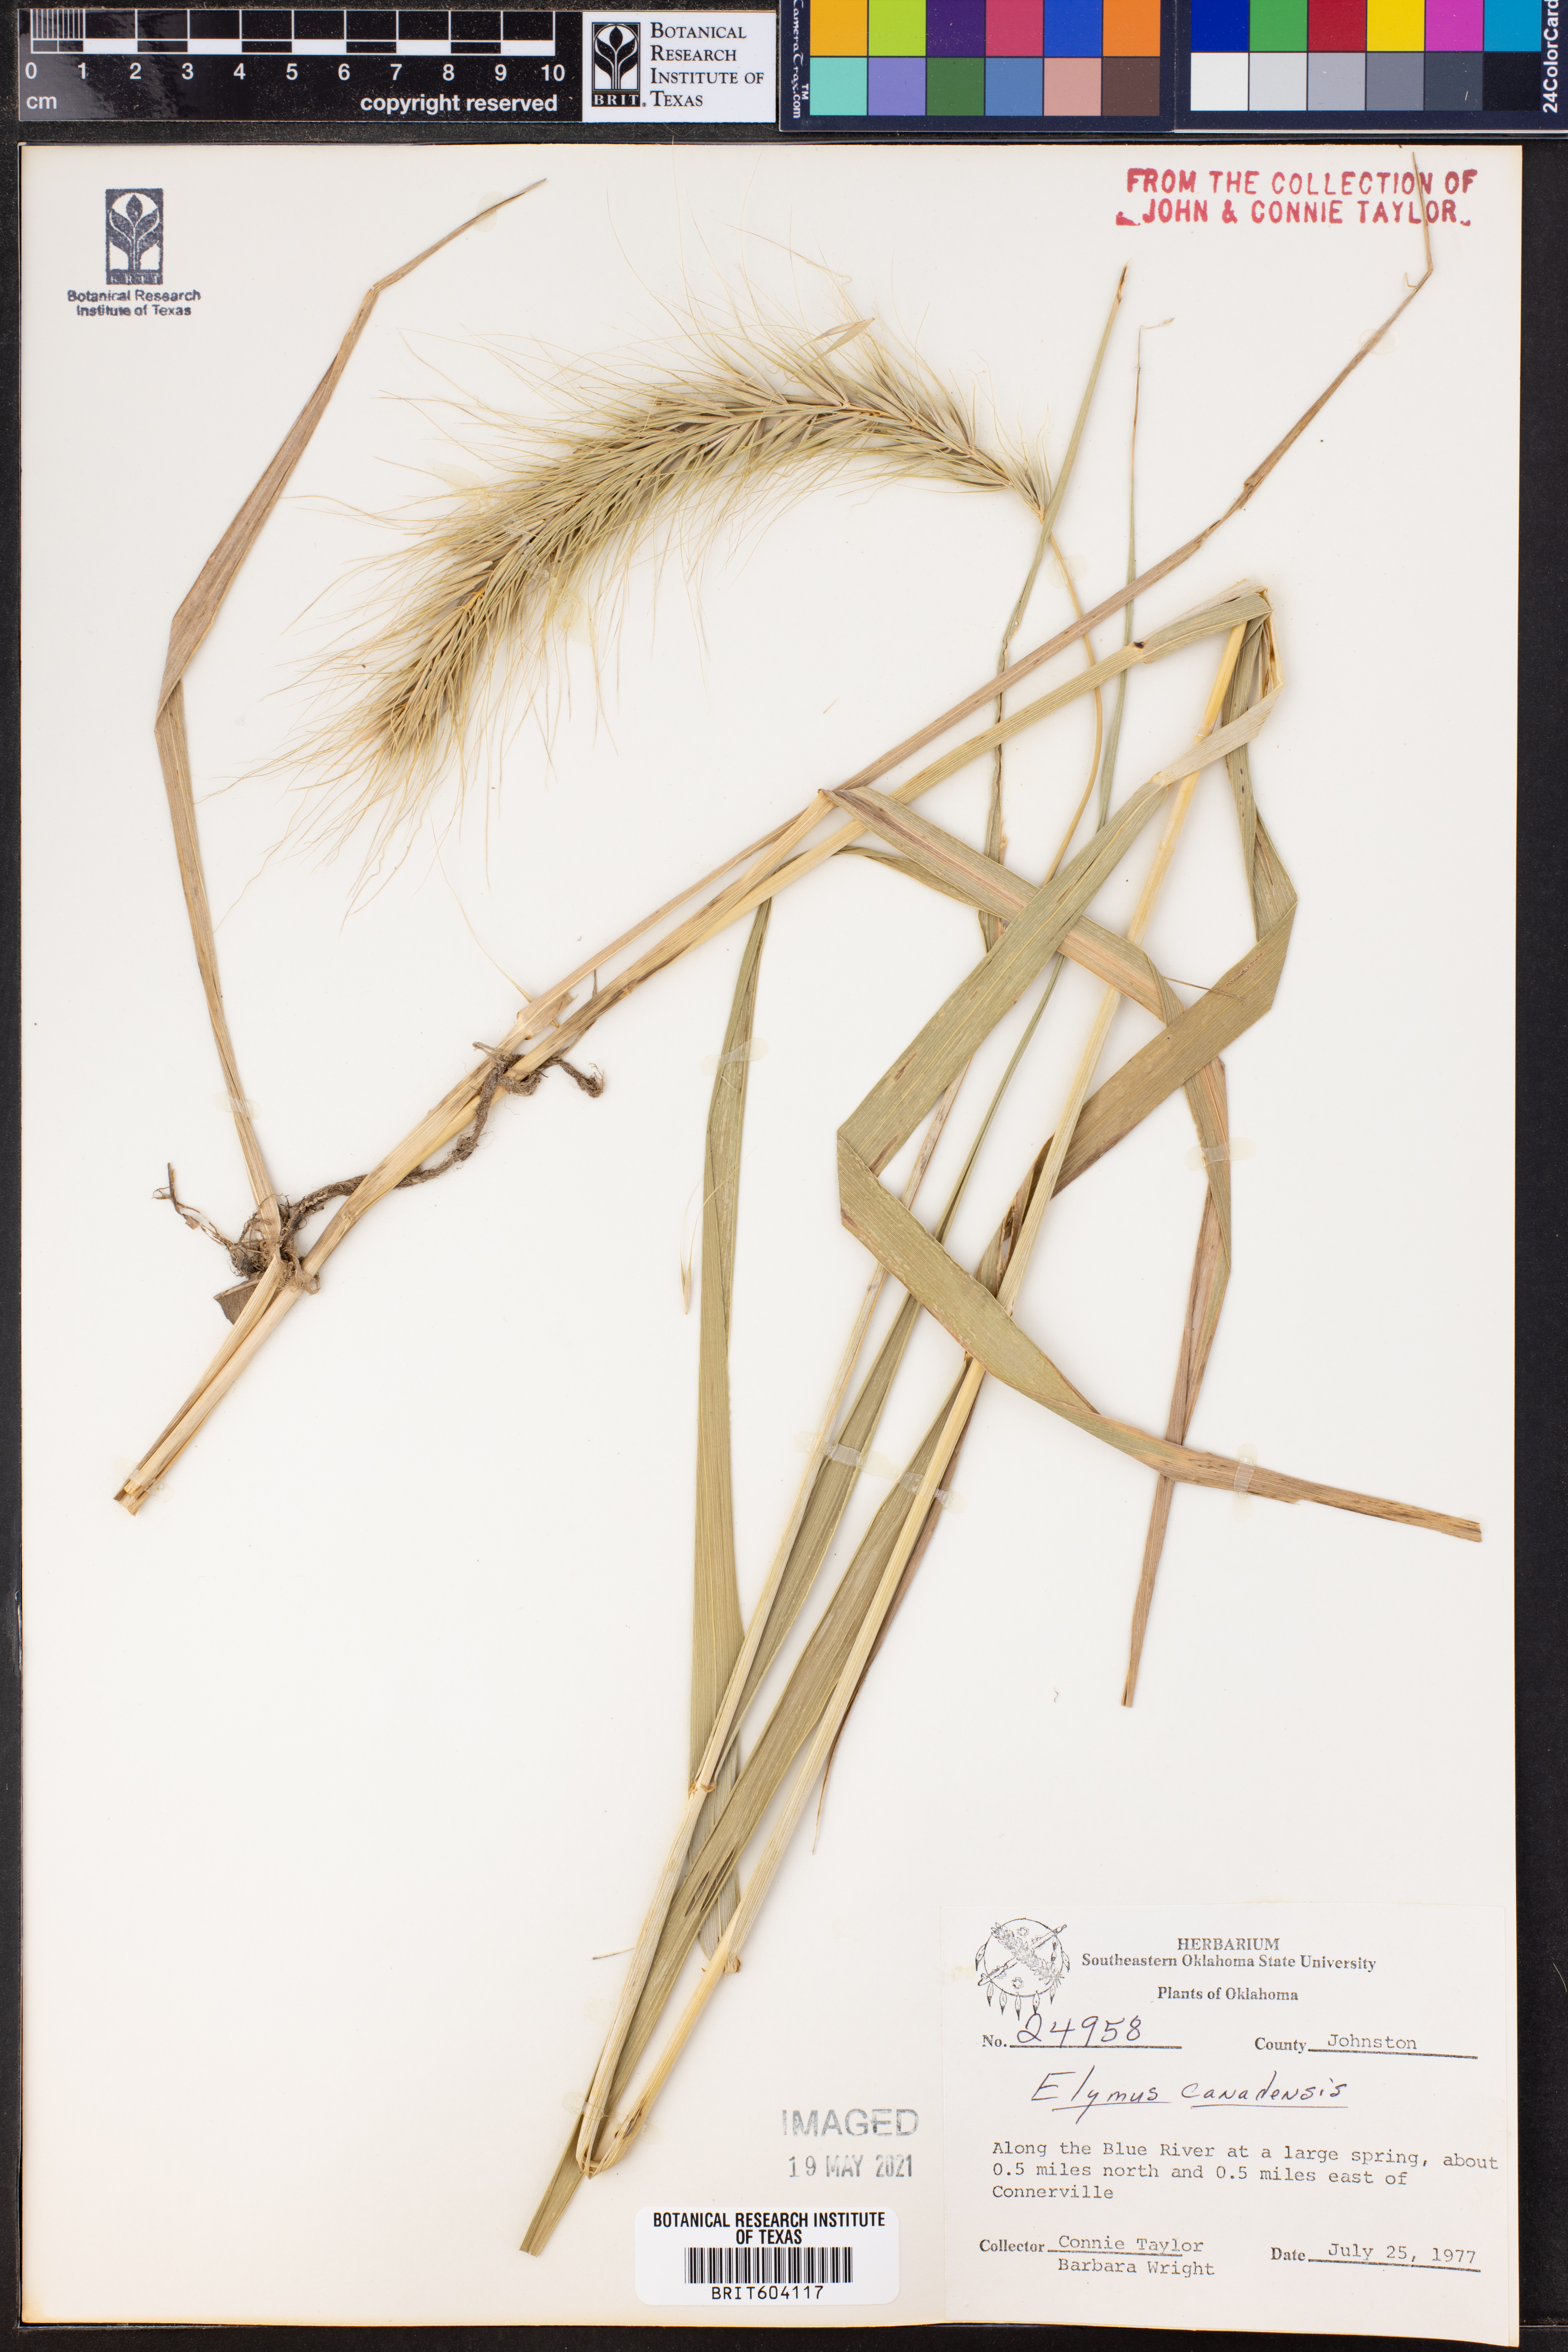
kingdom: Plantae
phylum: Tracheophyta
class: Liliopsida
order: Poales
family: Poaceae
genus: Elymus
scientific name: Elymus canadensis
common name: Canada wild rye
